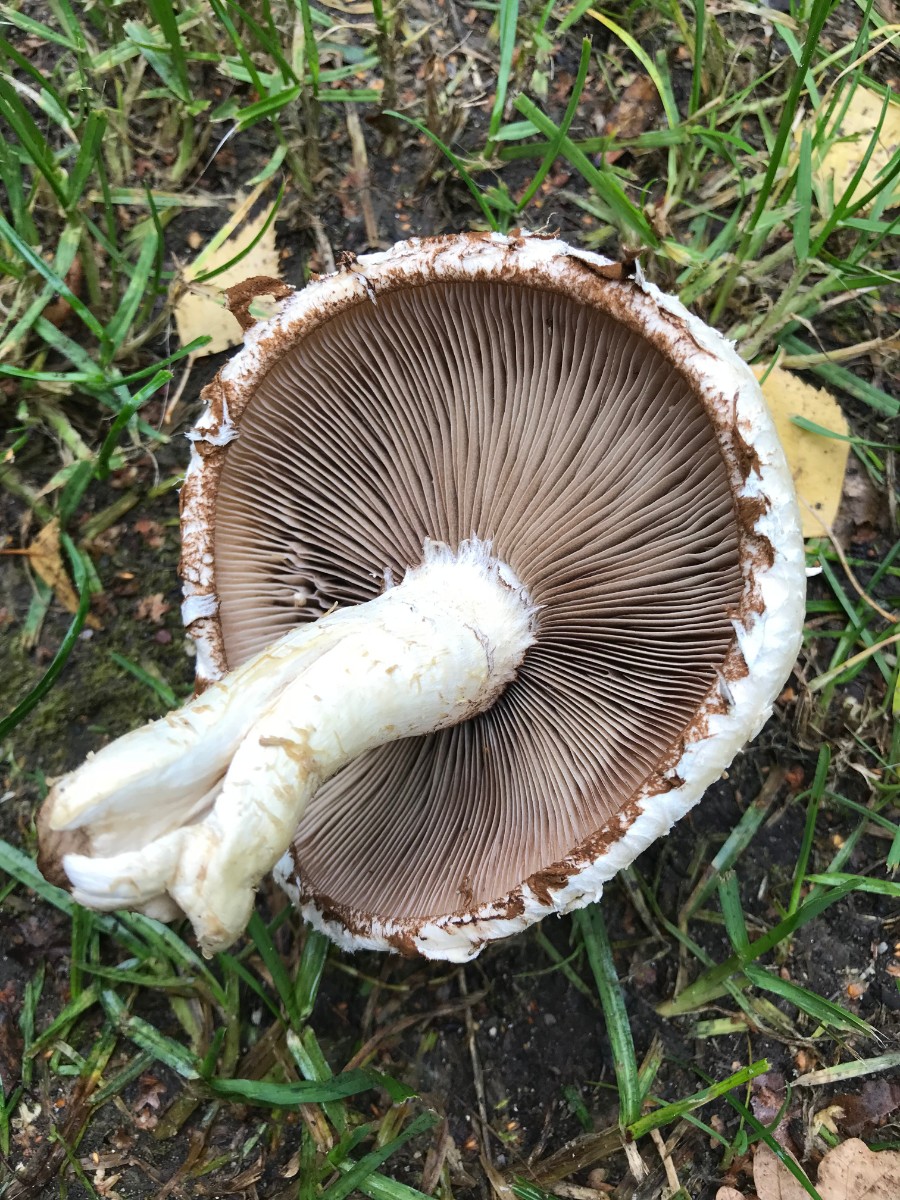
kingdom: Fungi
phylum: Basidiomycota
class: Agaricomycetes
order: Agaricales
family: Strophariaceae
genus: Pholiota
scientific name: Pholiota populnea
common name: poppel-kæmpeskælhat
